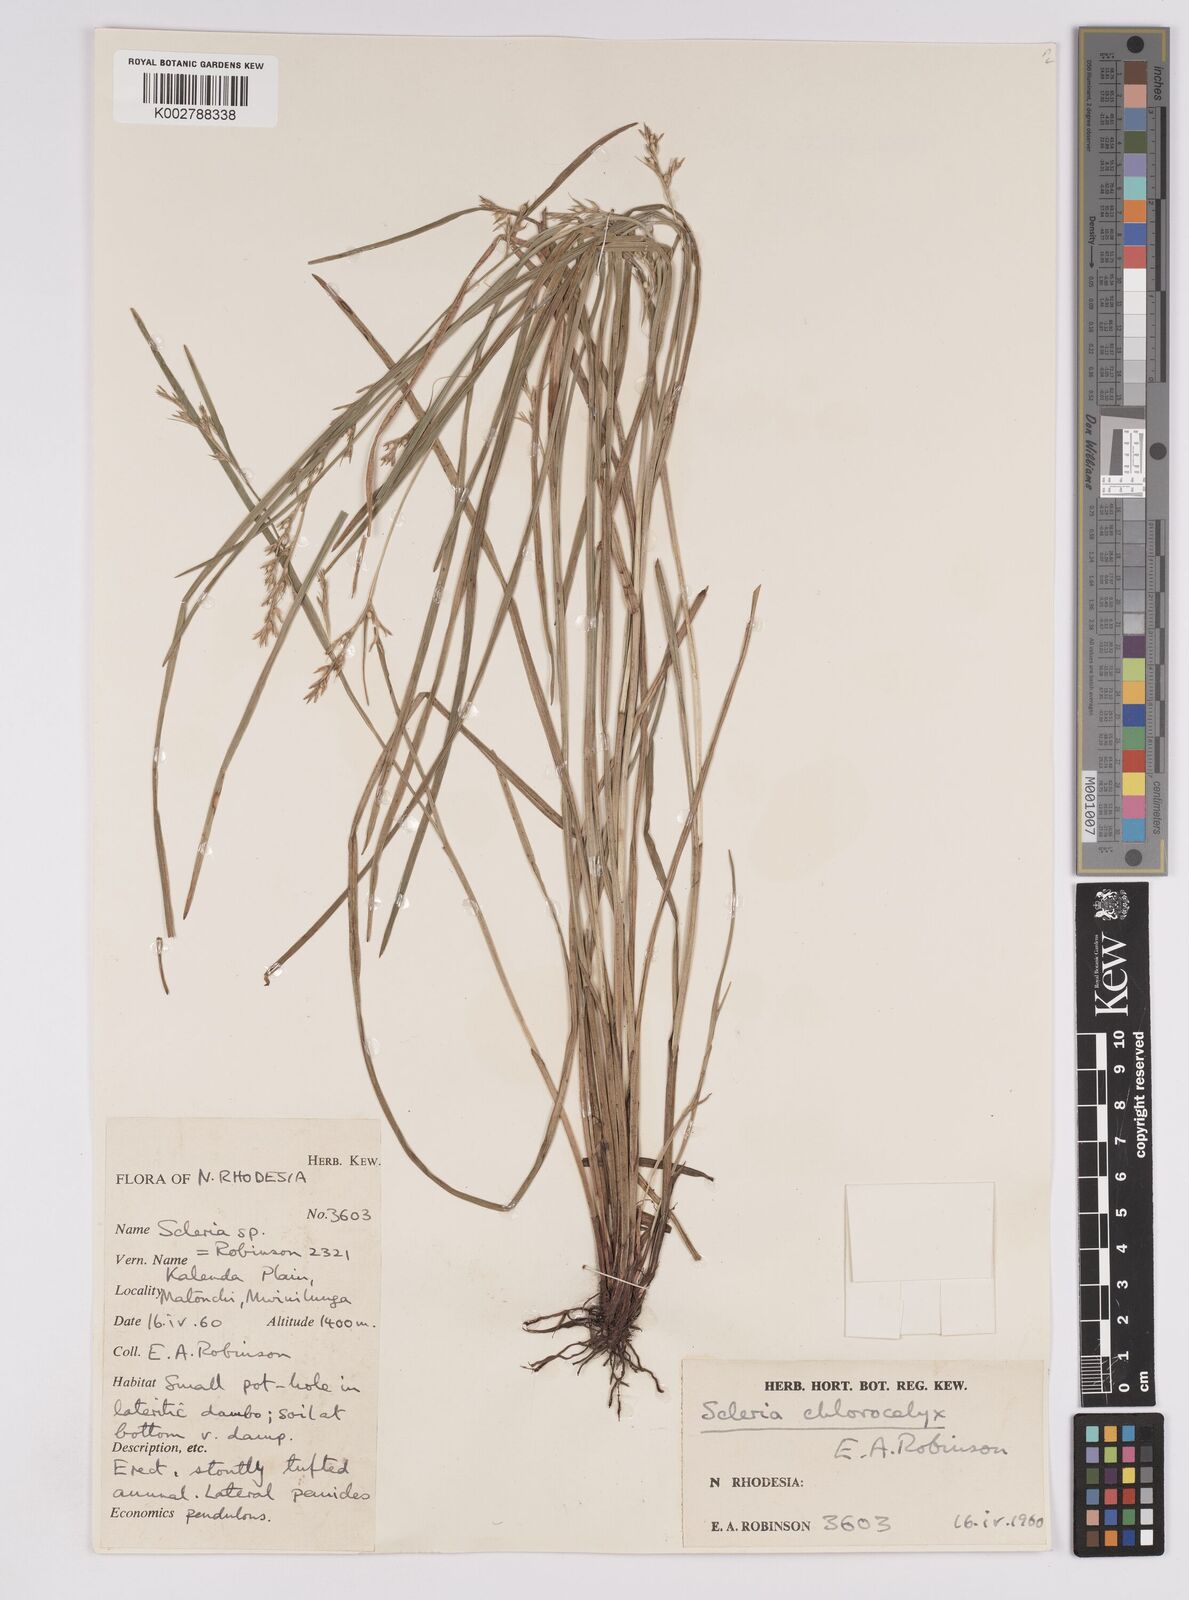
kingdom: Plantae
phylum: Tracheophyta
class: Liliopsida
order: Poales
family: Cyperaceae
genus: Scleria
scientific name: Scleria chlorocalyx
